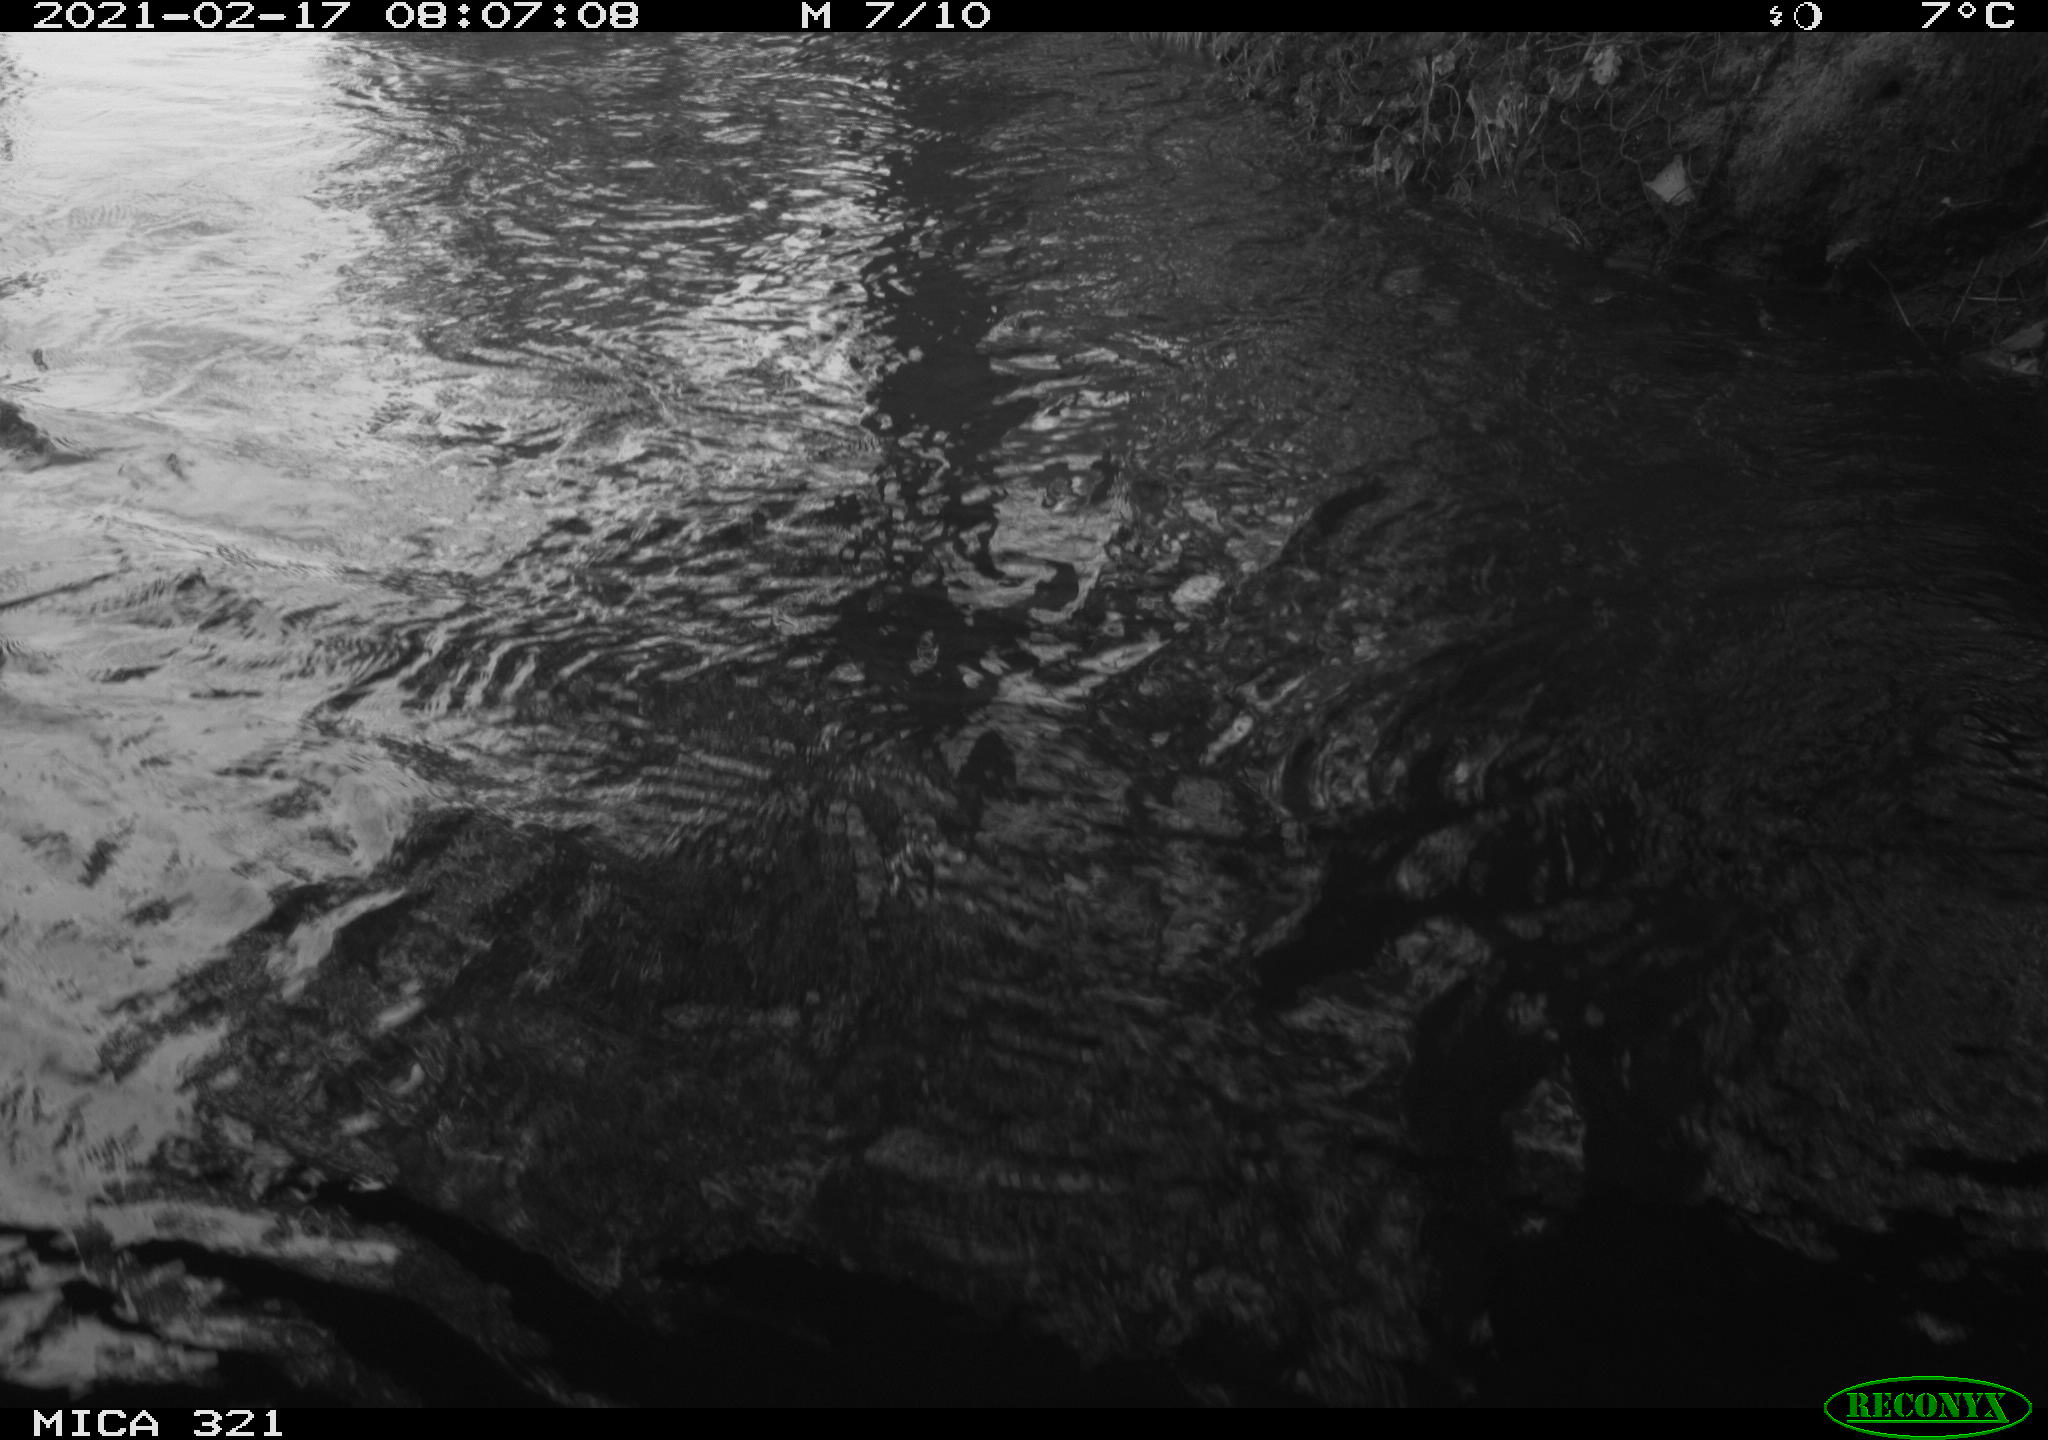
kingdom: Animalia
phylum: Chordata
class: Aves
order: Anseriformes
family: Anatidae
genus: Anas
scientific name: Anas platyrhynchos
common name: Mallard
